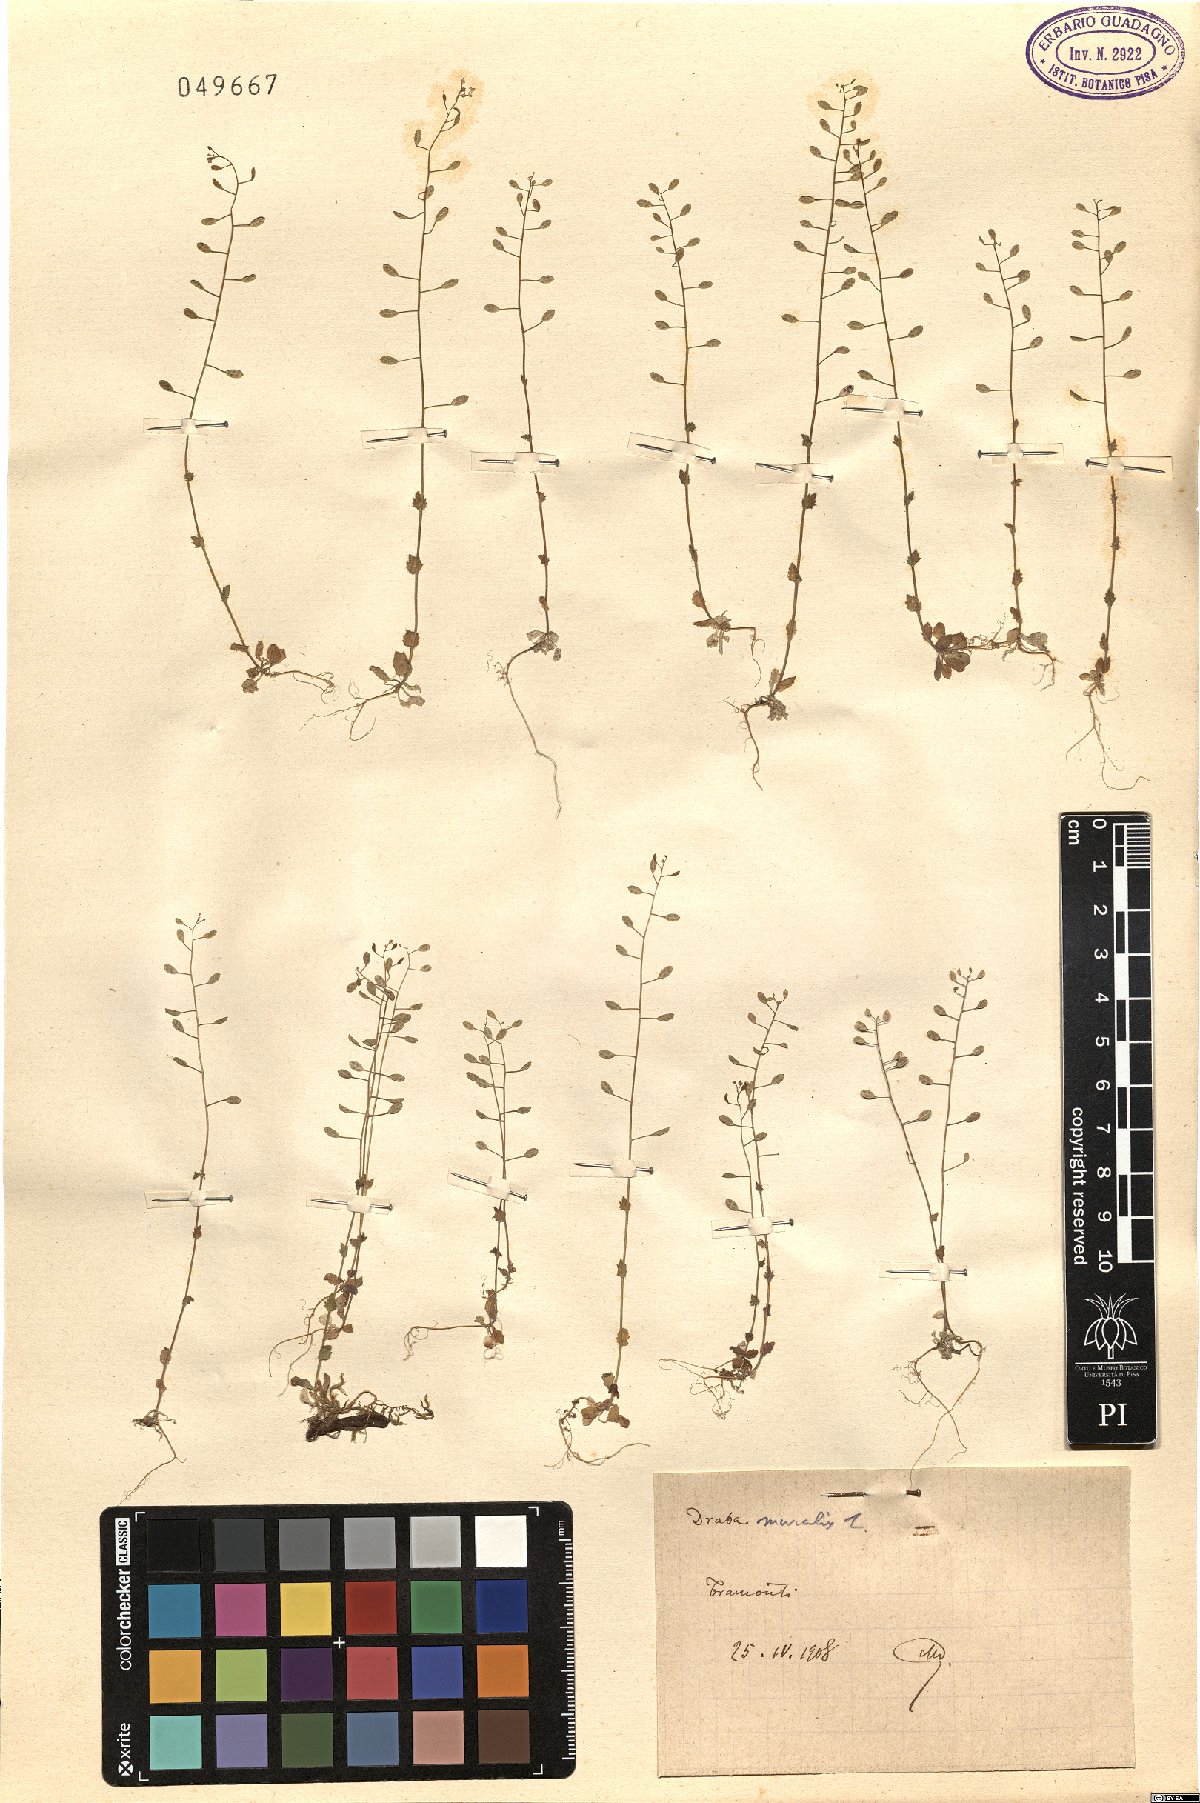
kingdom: Plantae
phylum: Tracheophyta
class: Magnoliopsida
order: Brassicales
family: Brassicaceae
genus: Drabella
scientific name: Drabella muralis
